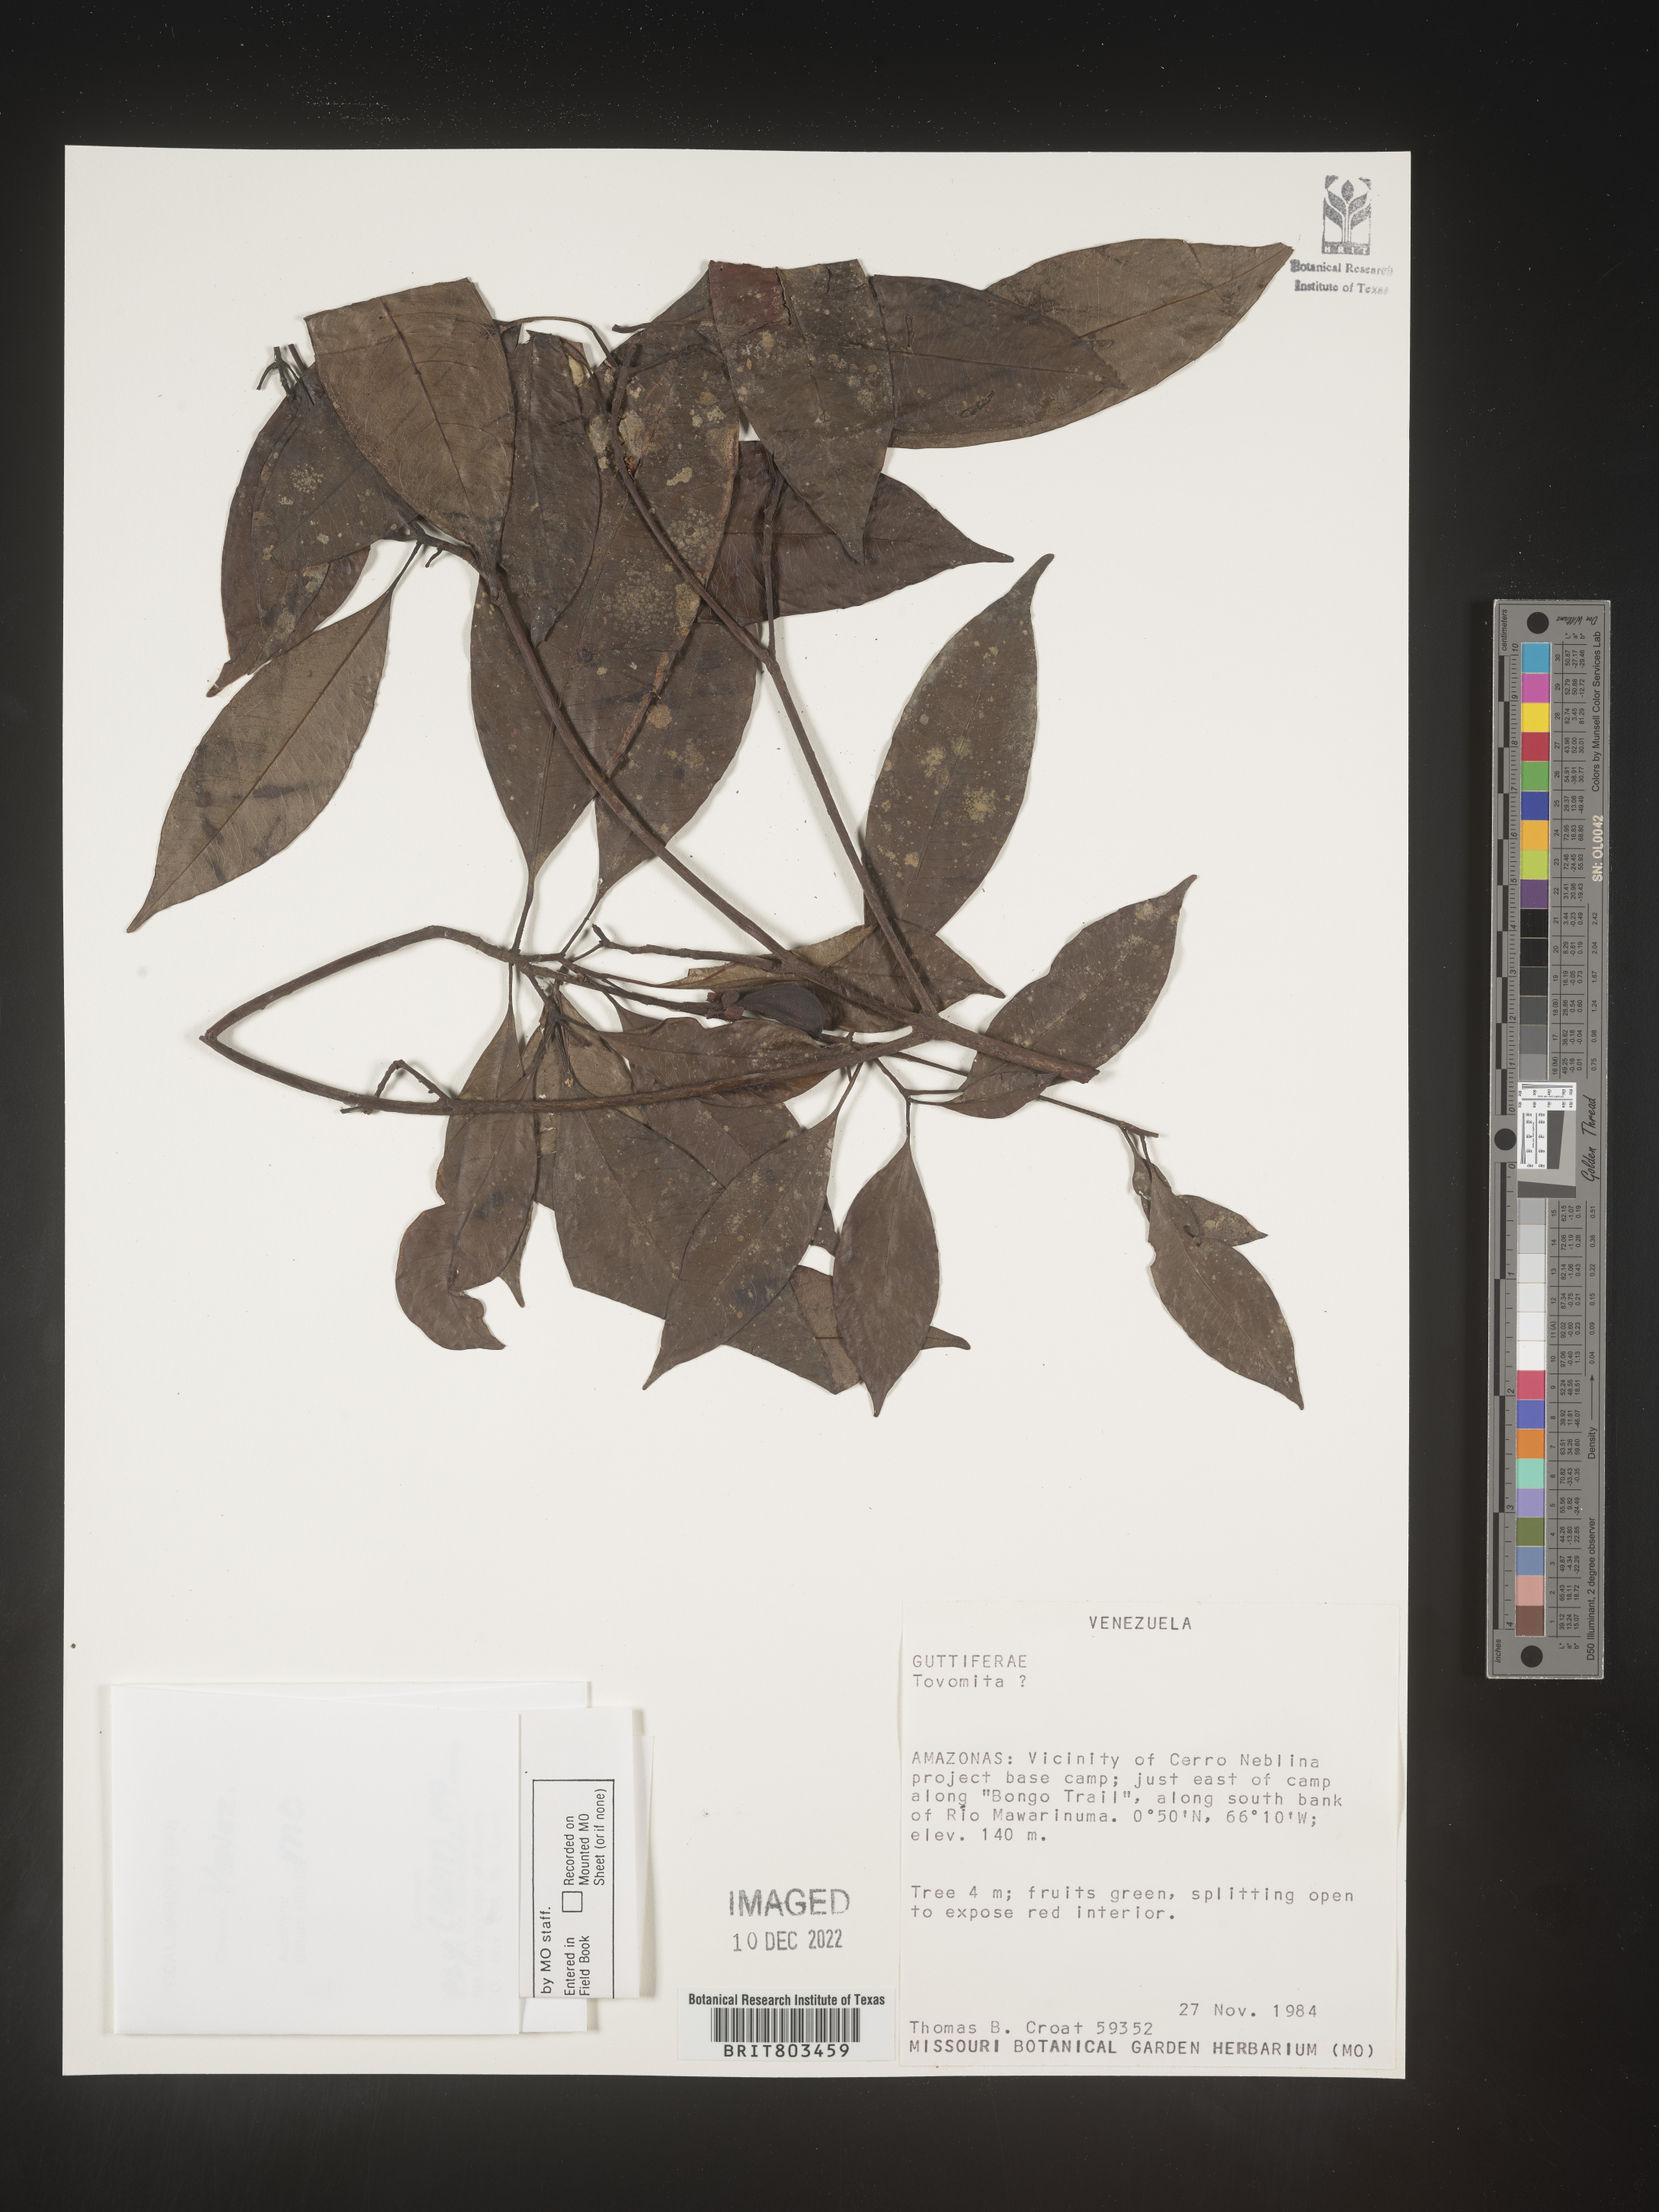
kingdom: Plantae
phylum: Tracheophyta
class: Magnoliopsida
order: Malpighiales
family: Clusiaceae
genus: Tovomita
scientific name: Tovomita
